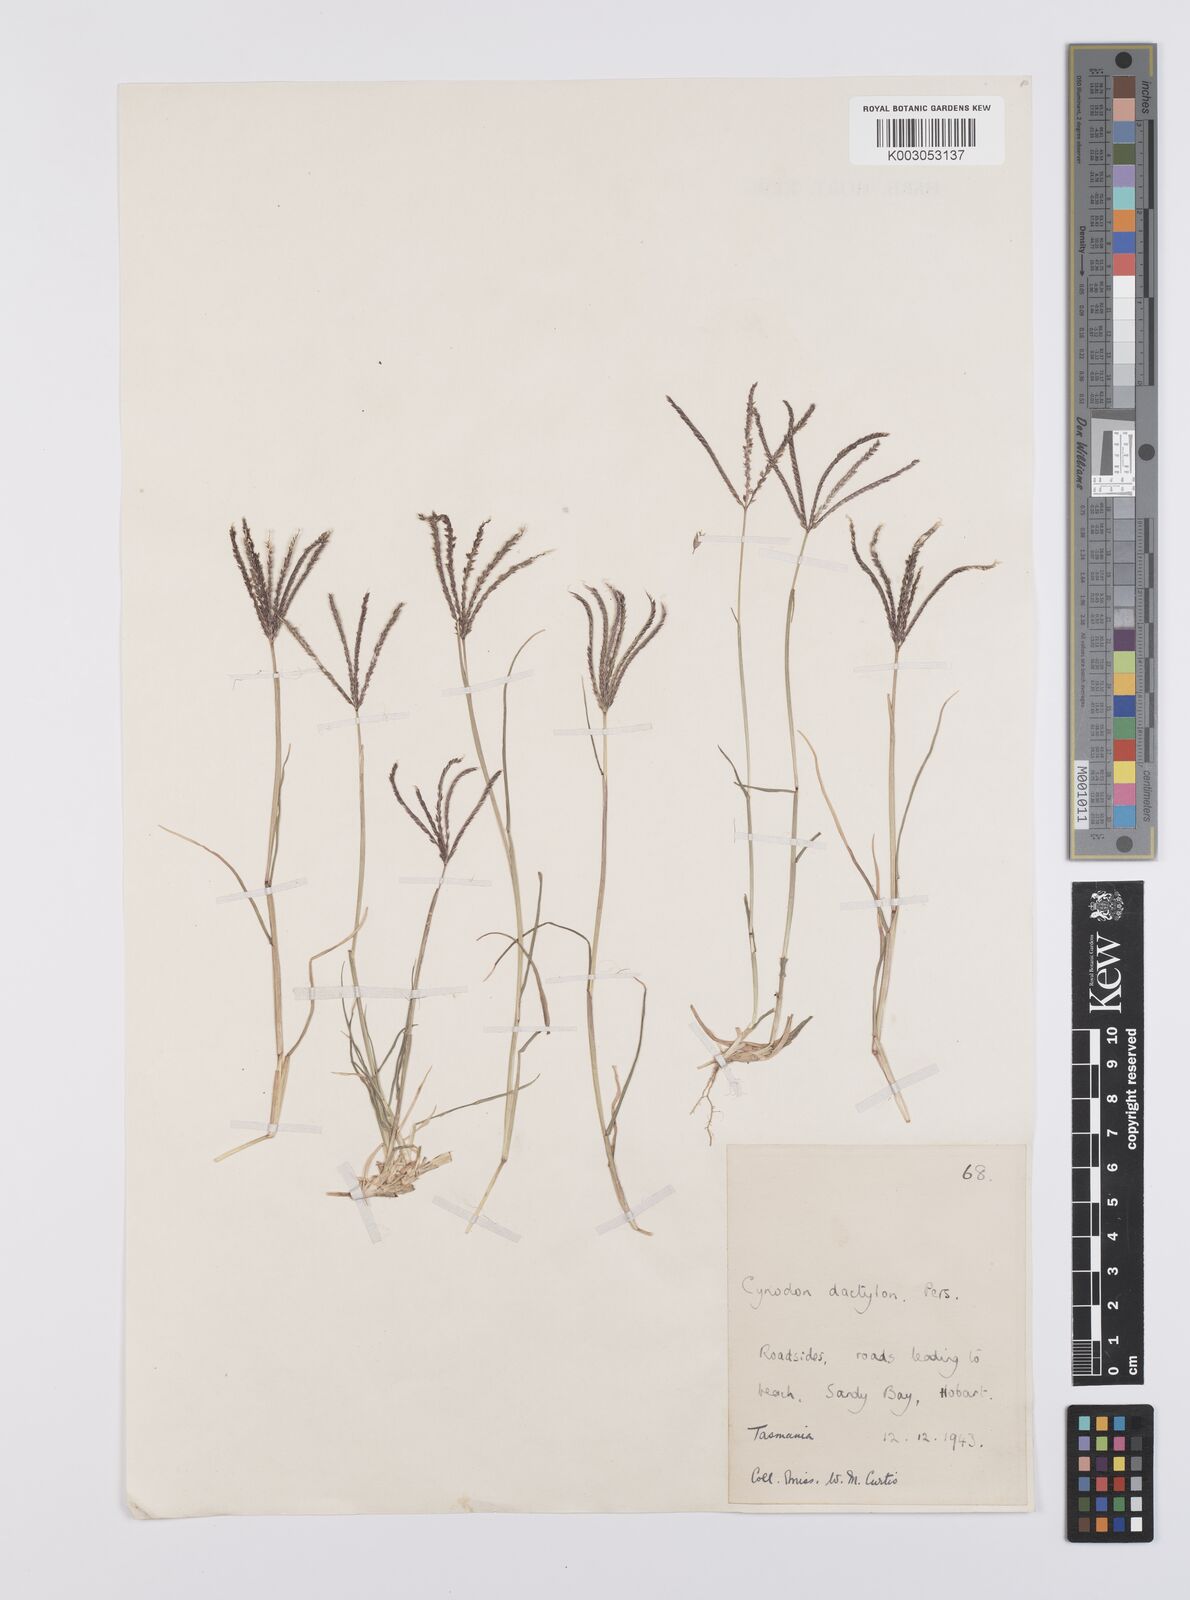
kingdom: Plantae
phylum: Tracheophyta
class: Liliopsida
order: Poales
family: Poaceae
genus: Cynodon
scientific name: Cynodon dactylon
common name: Bermuda grass
